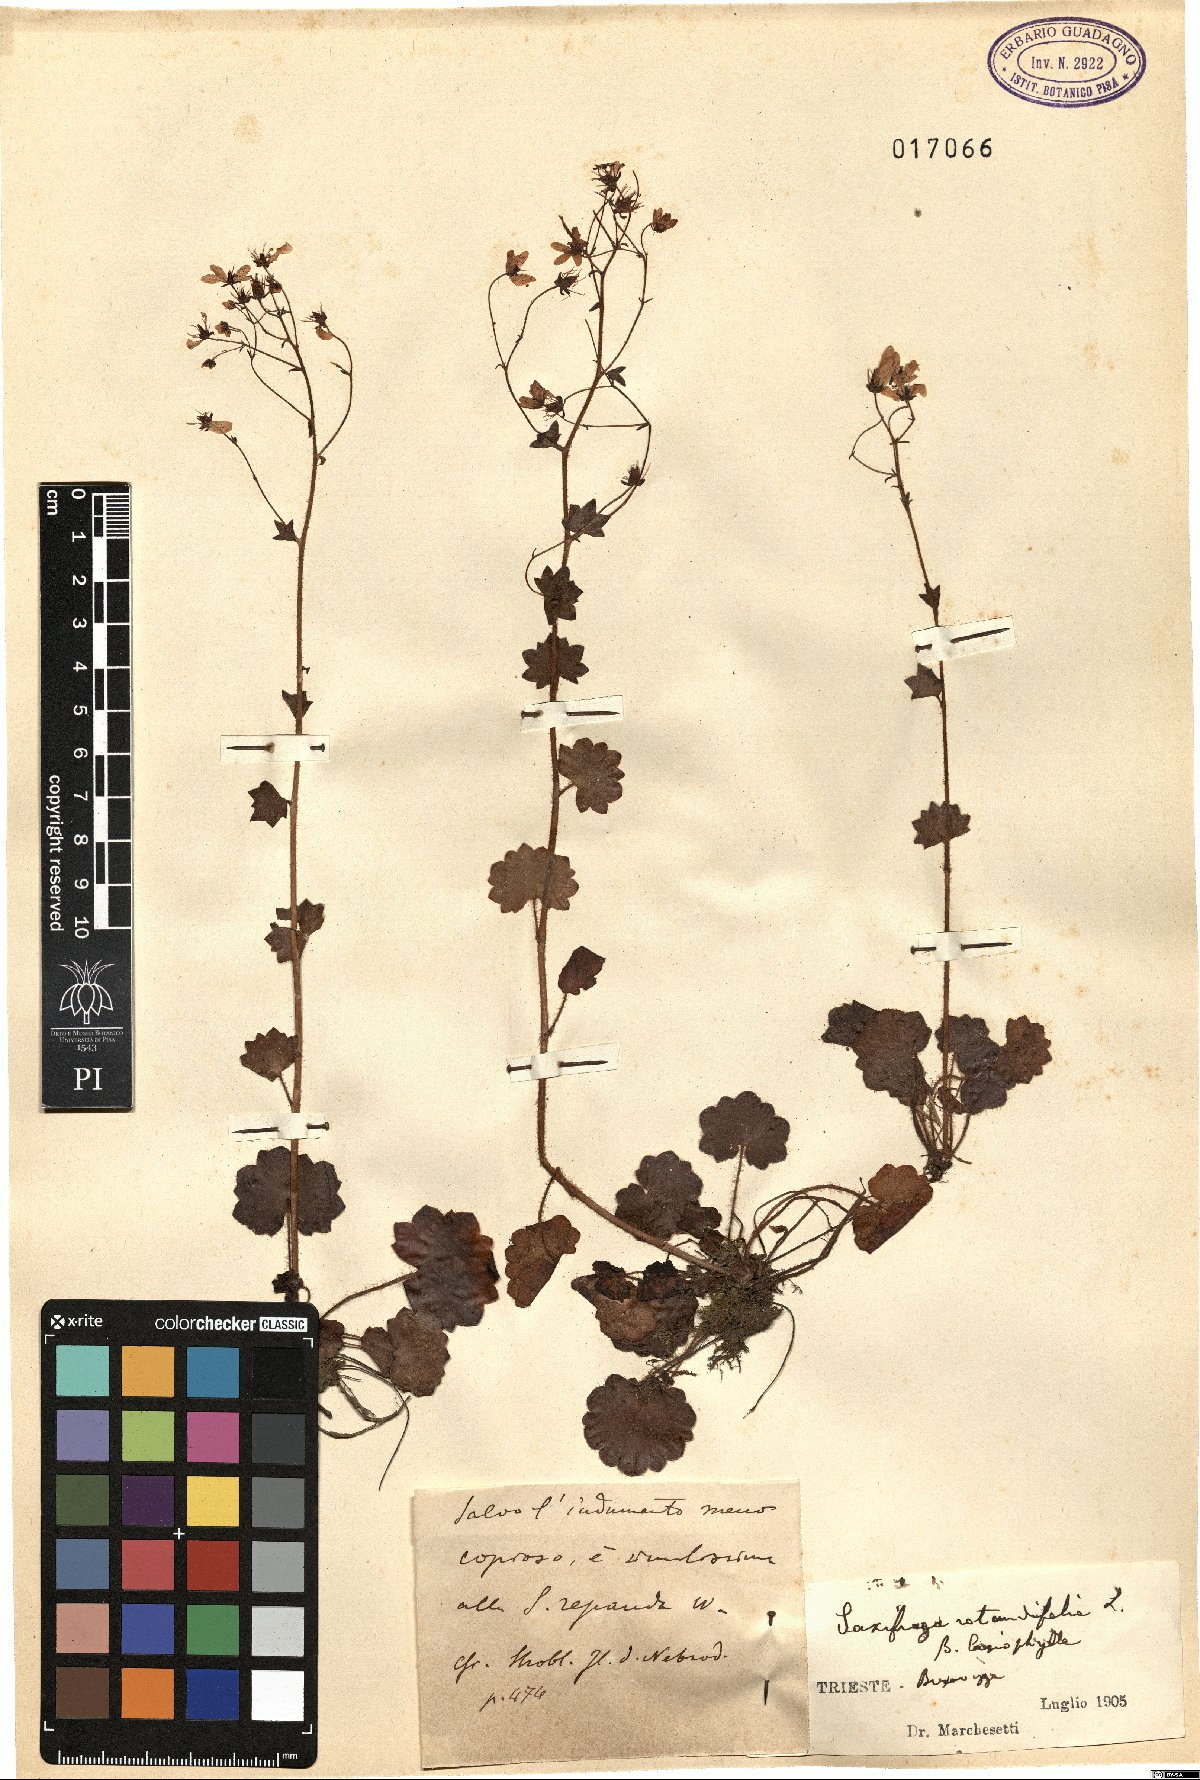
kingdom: Plantae
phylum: Tracheophyta
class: Magnoliopsida
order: Saxifragales
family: Saxifragaceae
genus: Saxifraga
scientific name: Saxifraga rotundifolia
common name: Round-leaved saxifrage
